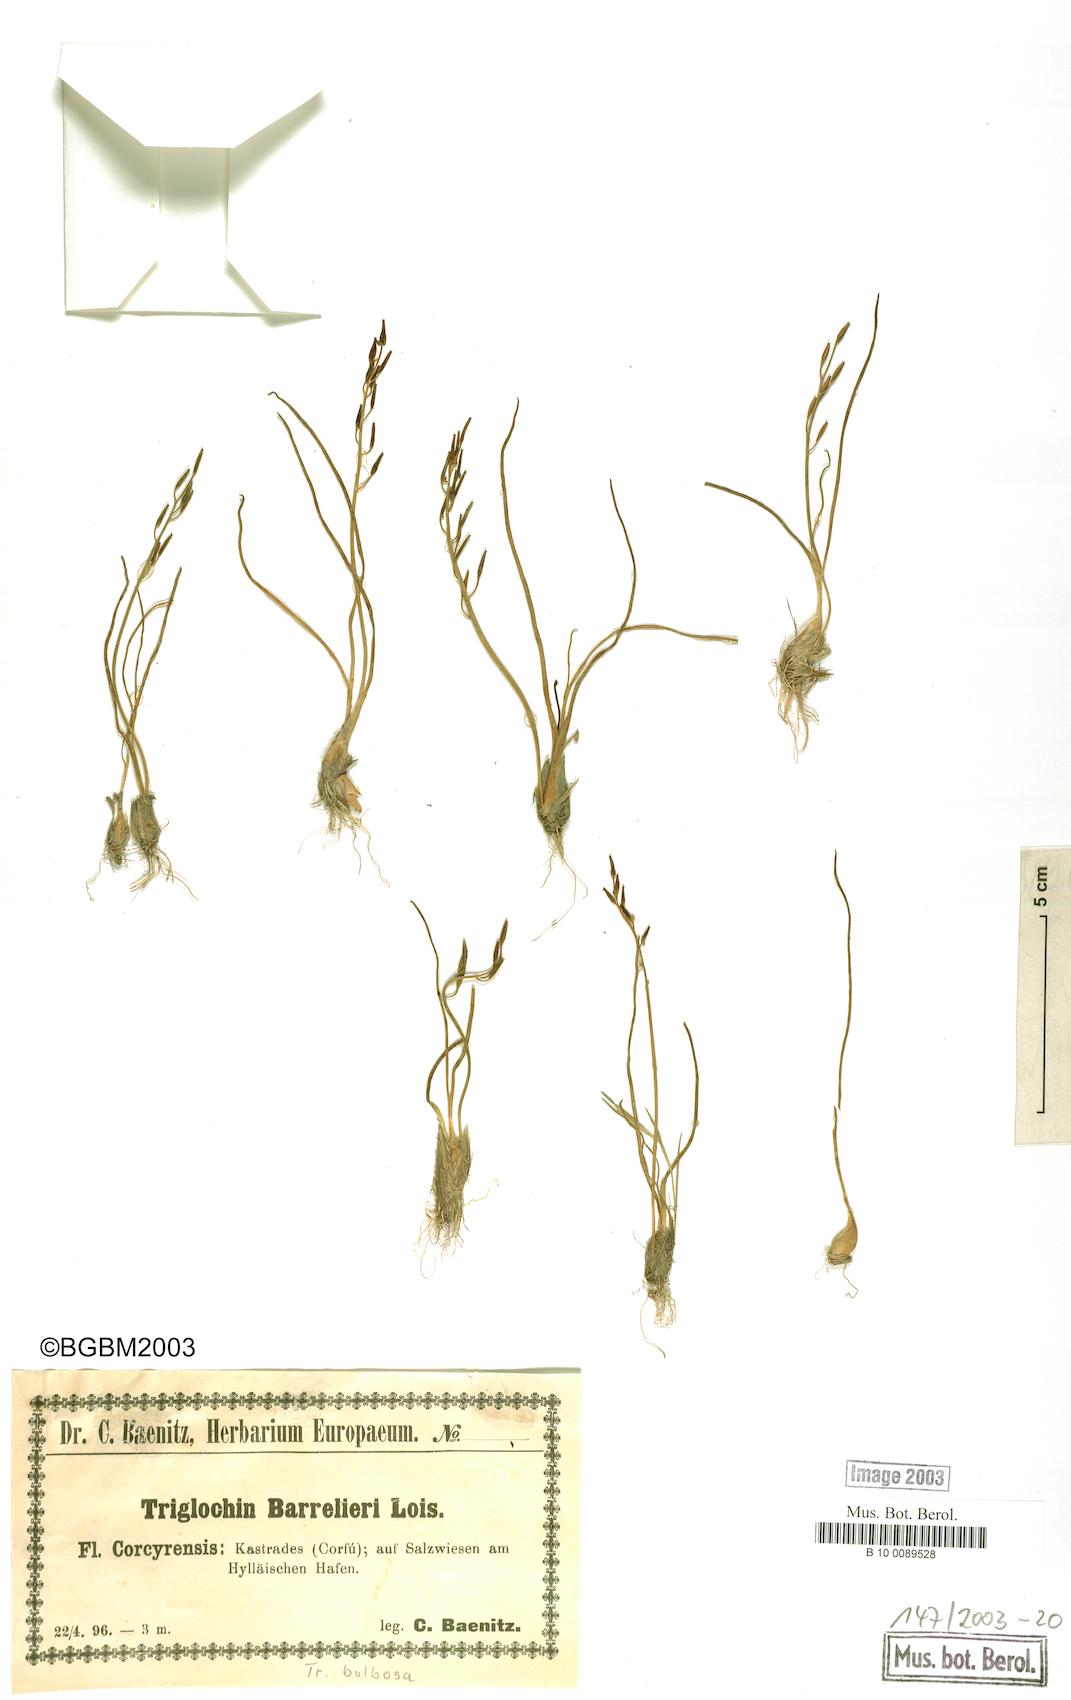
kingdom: Plantae
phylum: Tracheophyta
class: Liliopsida
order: Alismatales
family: Juncaginaceae
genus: Triglochin
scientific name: Triglochin bulbosa
